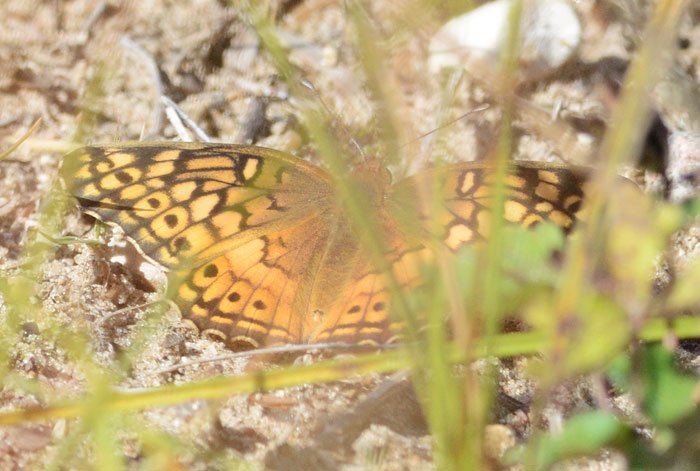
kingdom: Animalia
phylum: Arthropoda
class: Insecta
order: Lepidoptera
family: Nymphalidae
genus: Euptoieta
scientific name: Euptoieta claudia
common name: Variegated Fritillary
